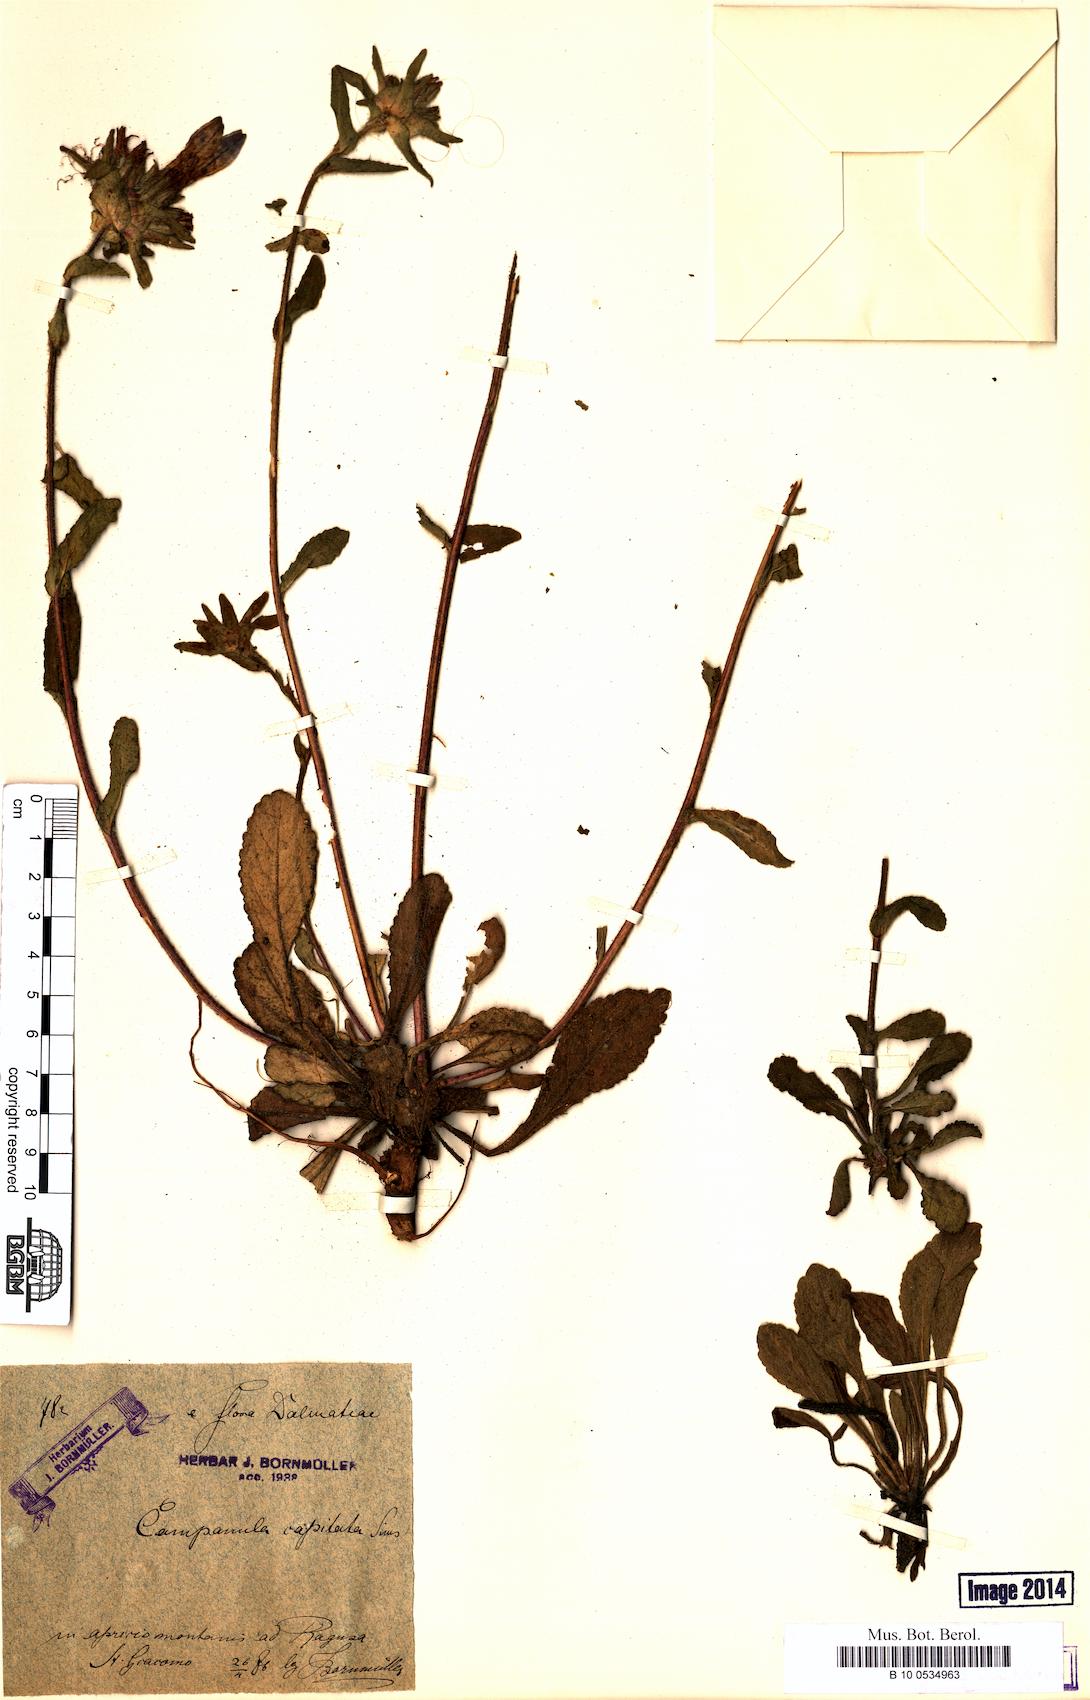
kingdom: Plantae
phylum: Tracheophyta
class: Magnoliopsida
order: Asterales
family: Campanulaceae
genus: Campanula
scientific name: Campanula lingulata
